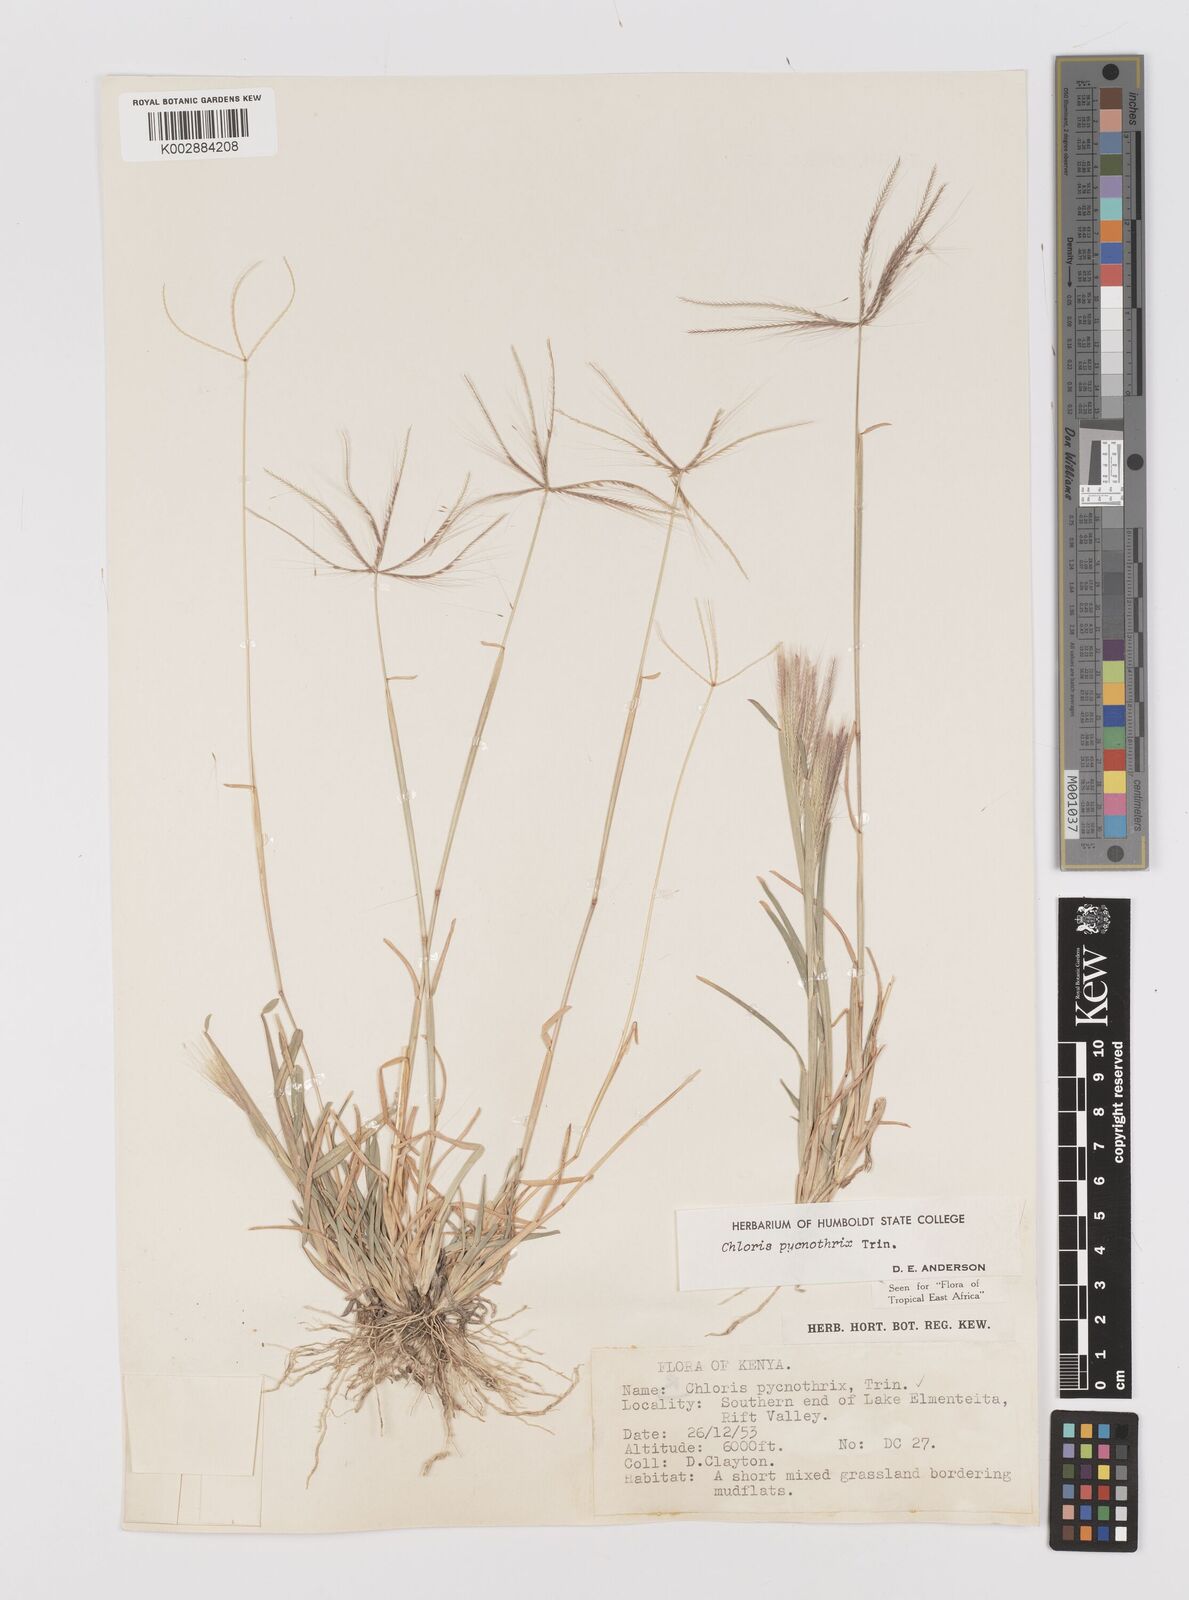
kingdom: Plantae
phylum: Tracheophyta
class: Liliopsida
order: Poales
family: Poaceae
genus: Chloris
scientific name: Chloris pycnothrix
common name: Spiderweb chloris
